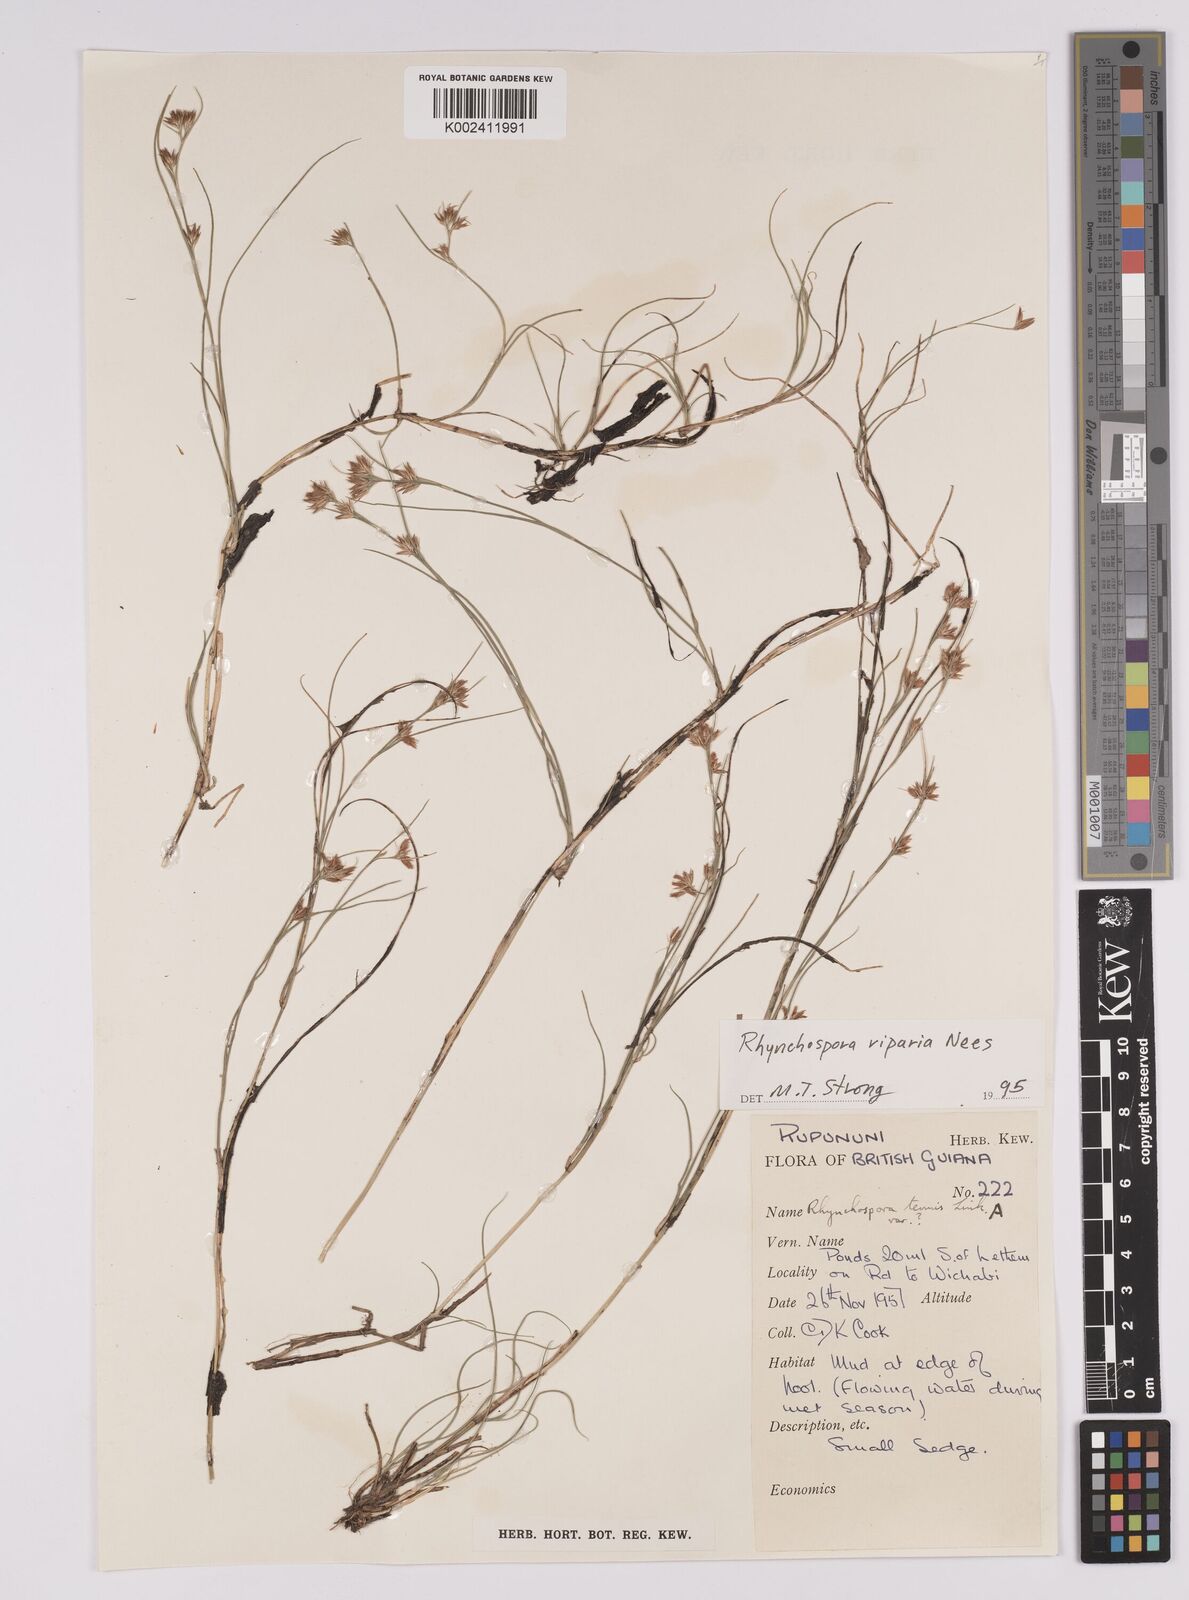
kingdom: Plantae
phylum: Tracheophyta
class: Liliopsida
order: Poales
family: Cyperaceae
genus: Rhynchospora
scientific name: Rhynchospora riparia
